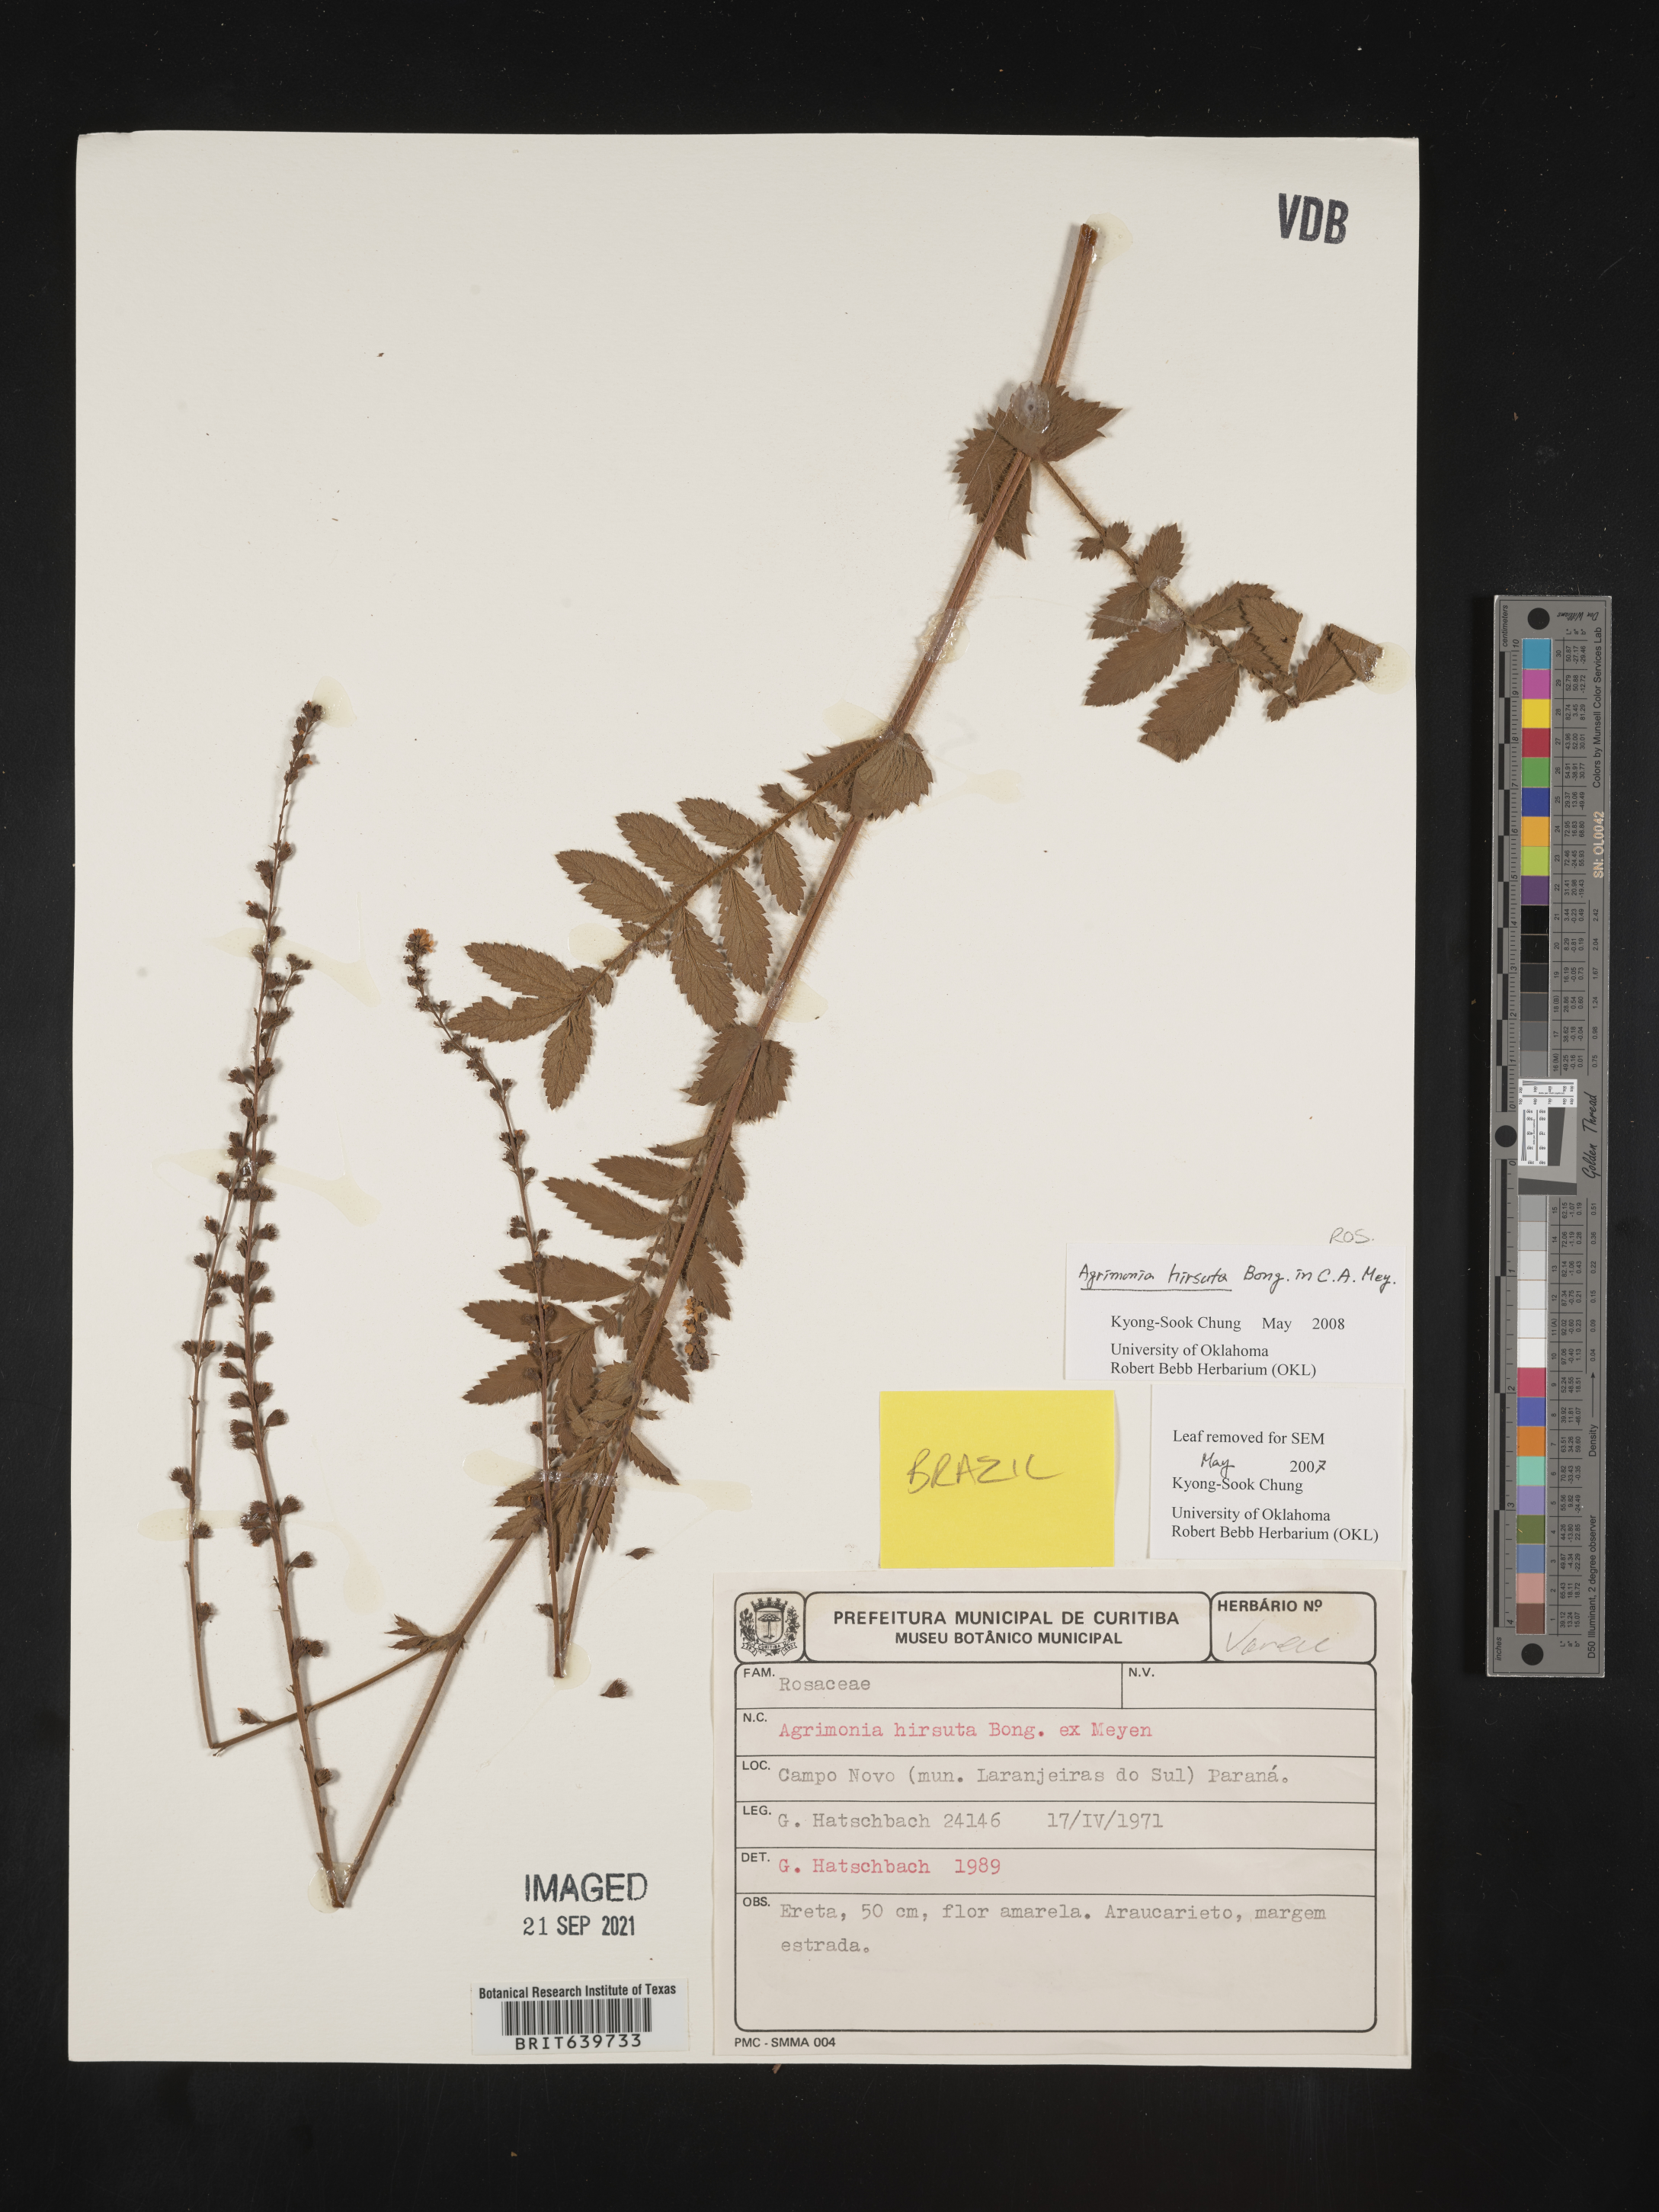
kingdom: Plantae
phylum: Tracheophyta
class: Magnoliopsida
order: Rosales
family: Rosaceae
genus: Agrimonia
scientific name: Agrimonia
